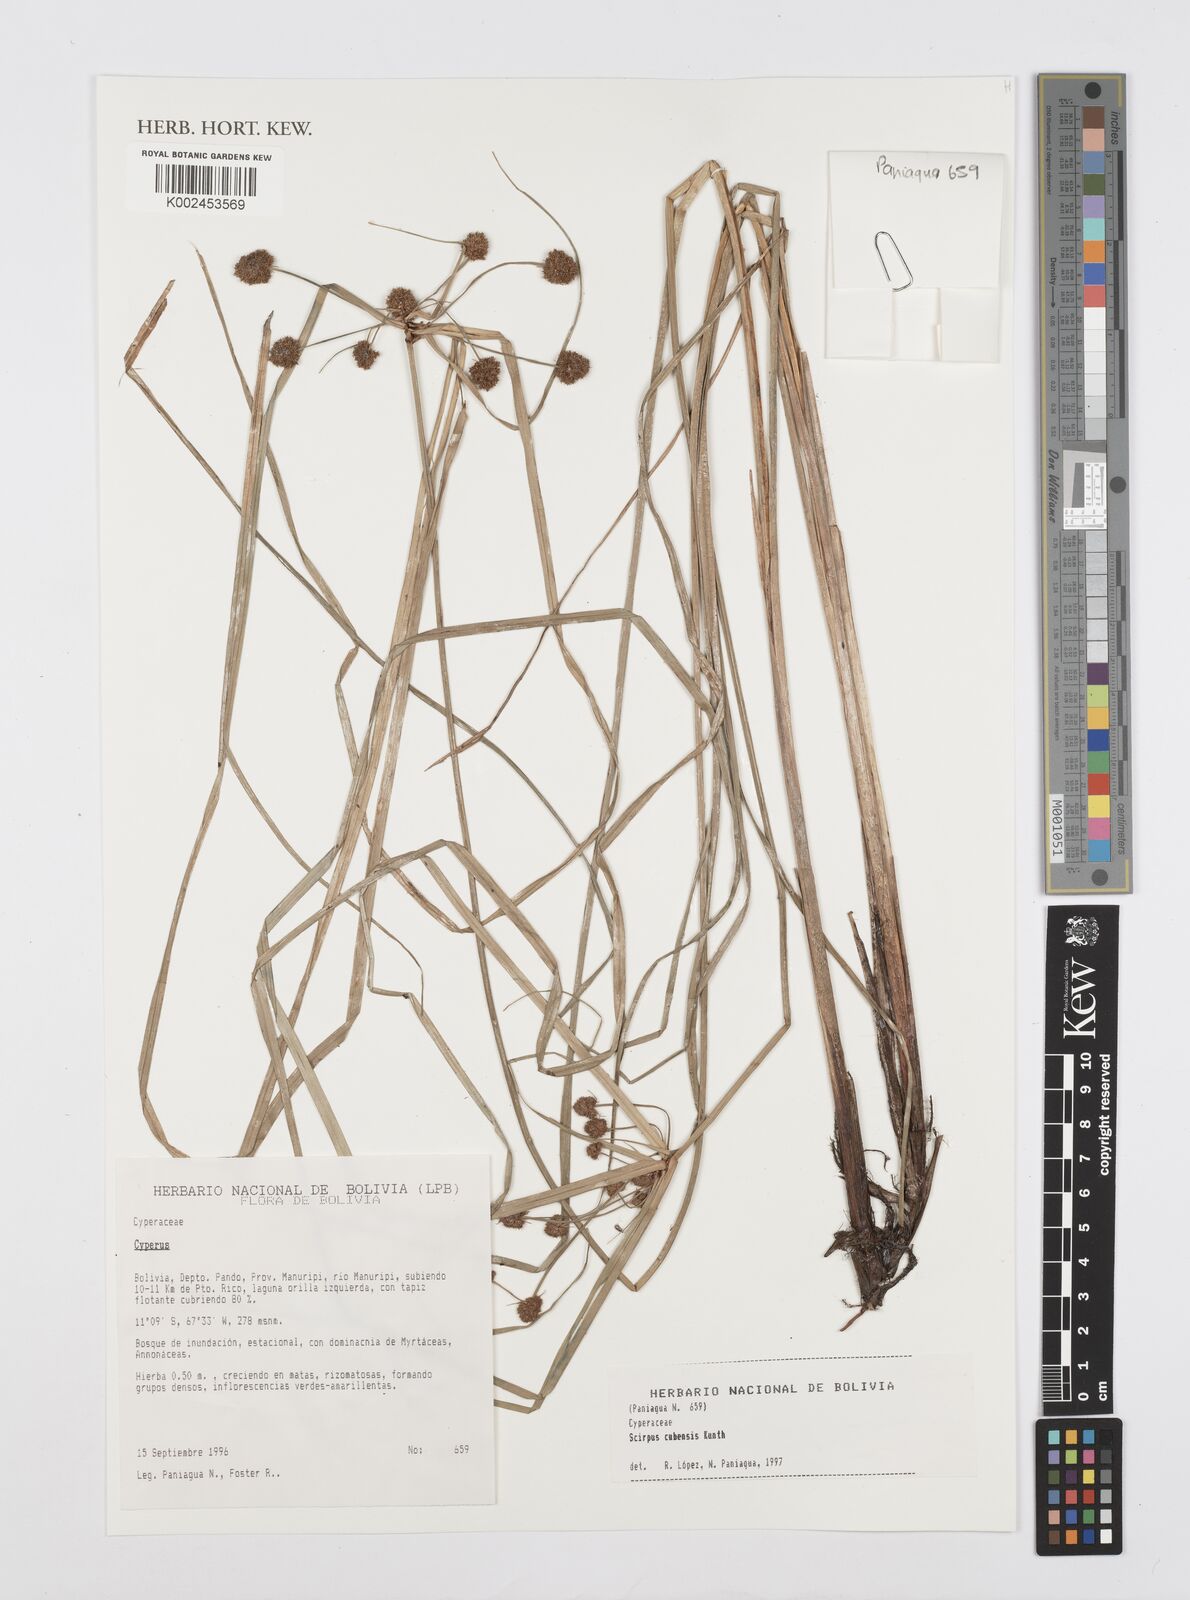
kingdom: Plantae
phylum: Tracheophyta
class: Liliopsida
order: Poales
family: Cyperaceae
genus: Cyperus
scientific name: Cyperus elegans
